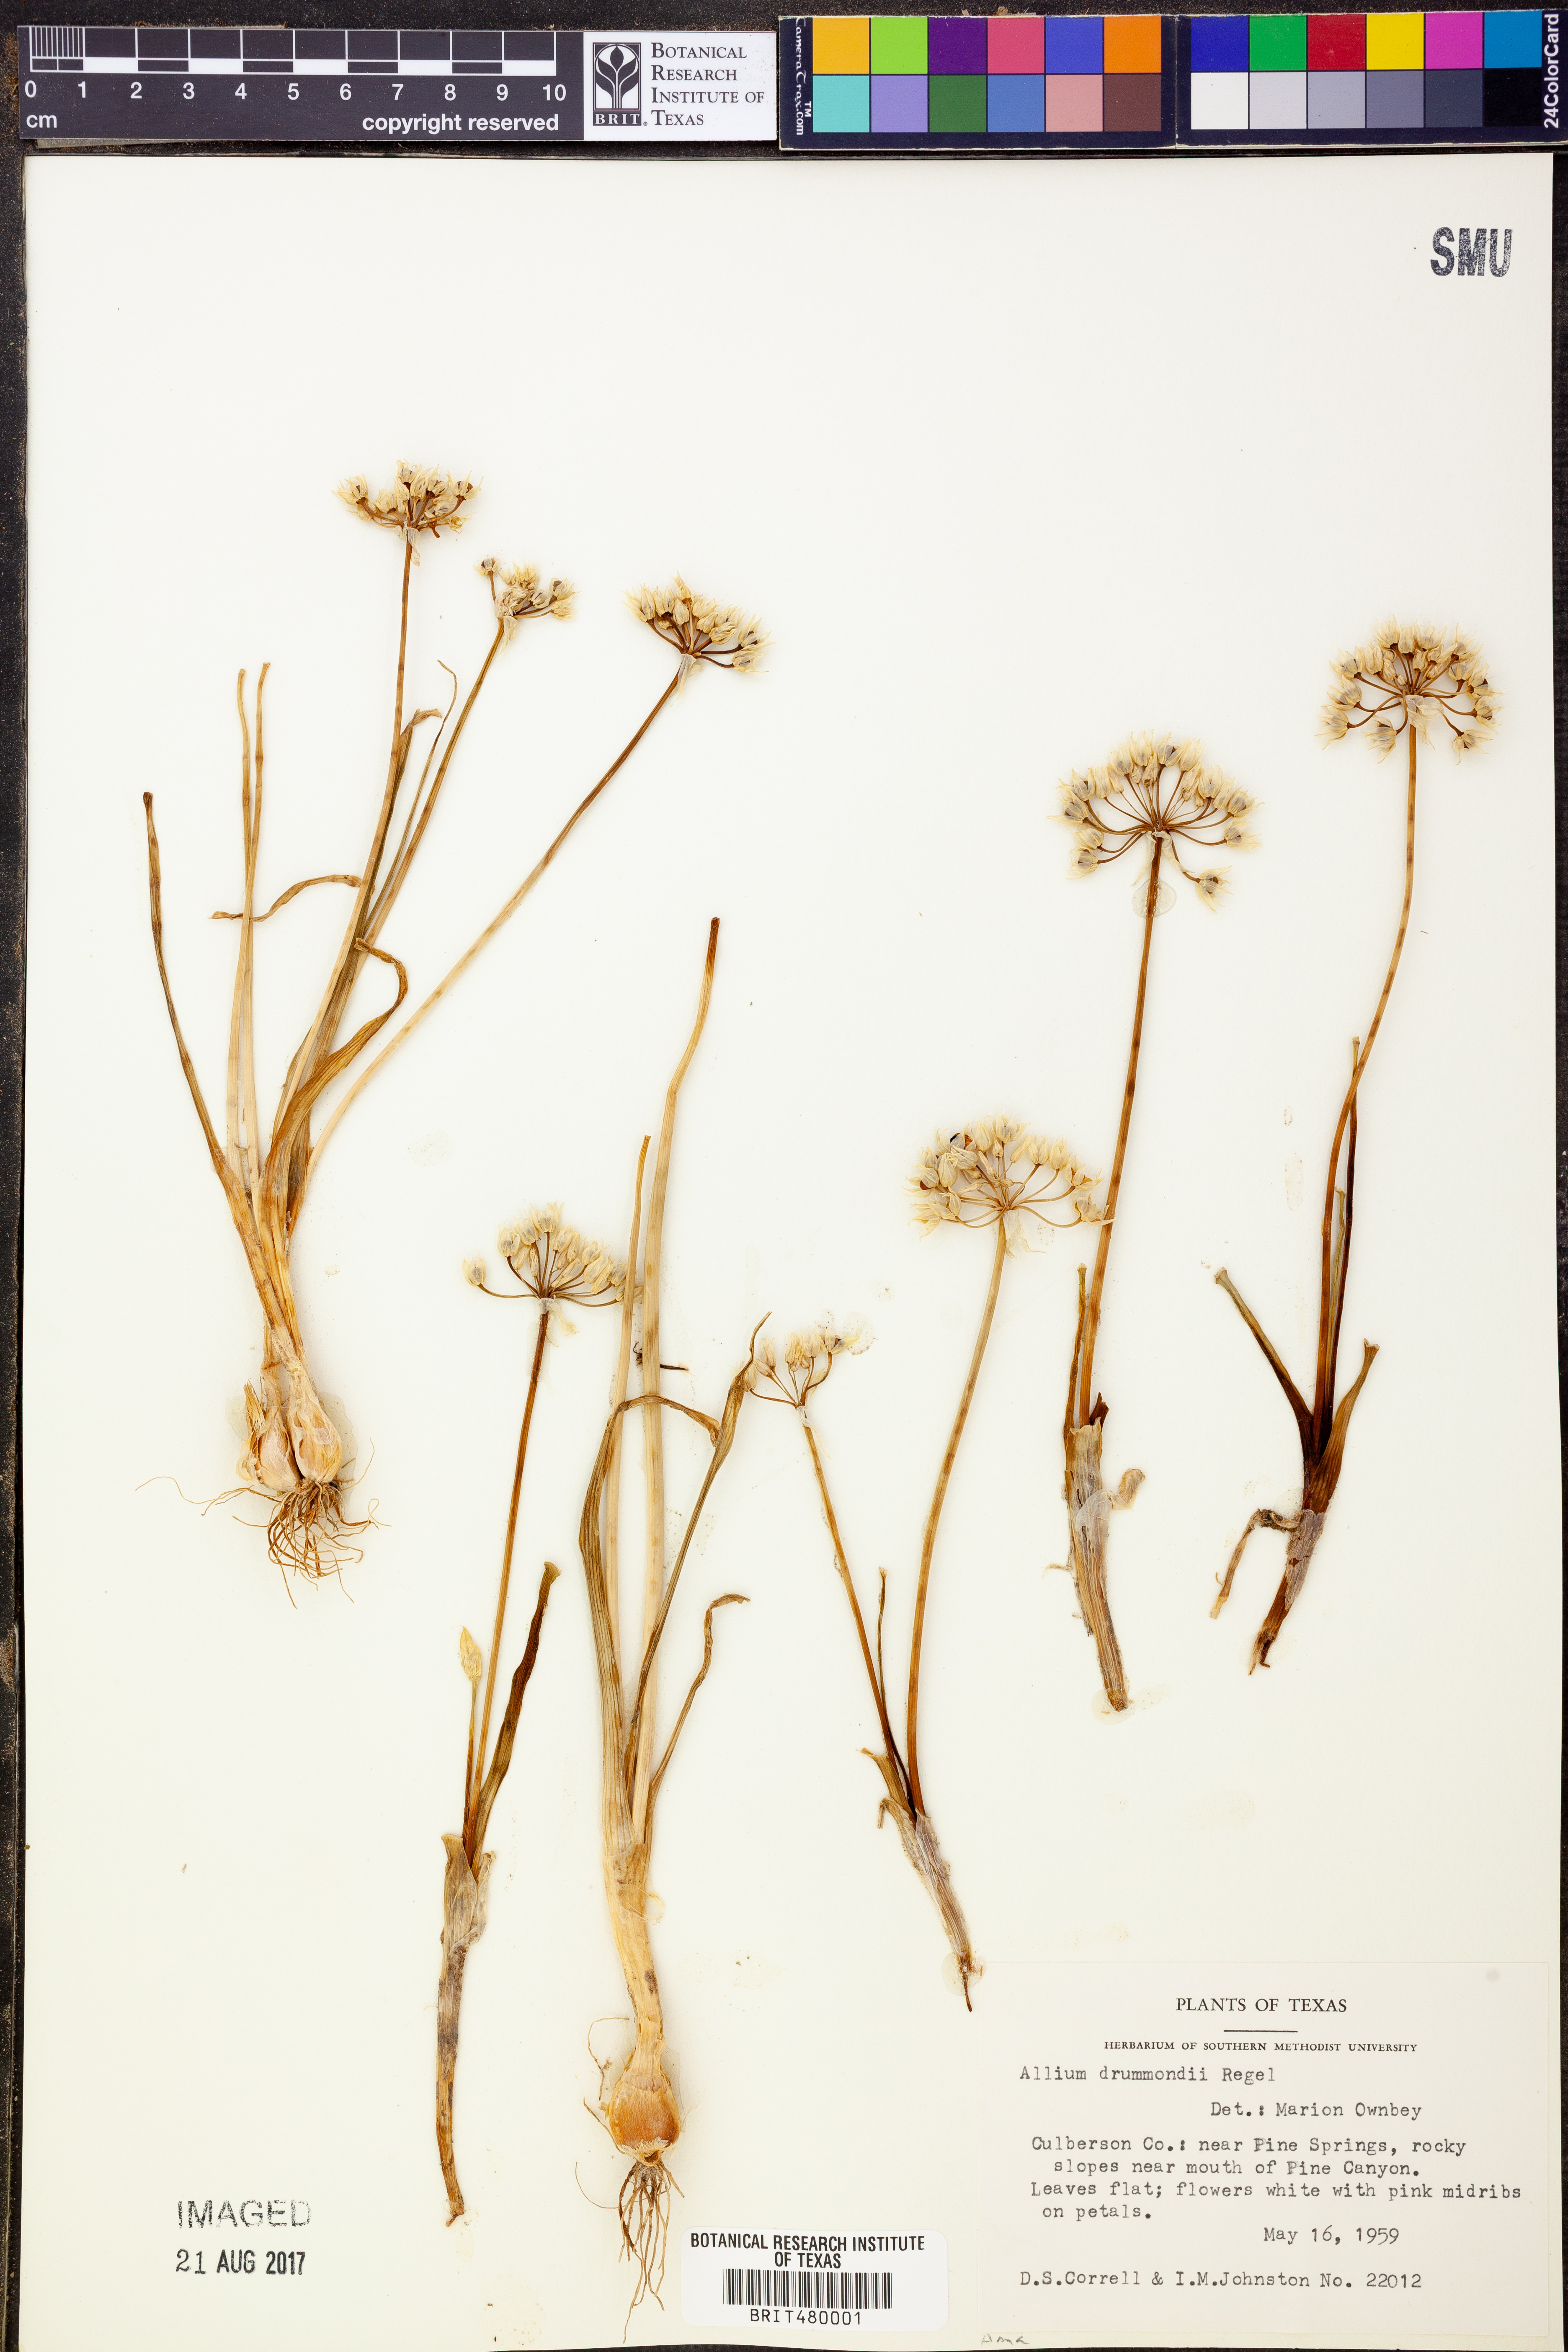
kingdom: Plantae
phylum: Tracheophyta
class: Liliopsida
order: Asparagales
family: Amaryllidaceae
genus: Allium
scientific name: Allium drummondii
